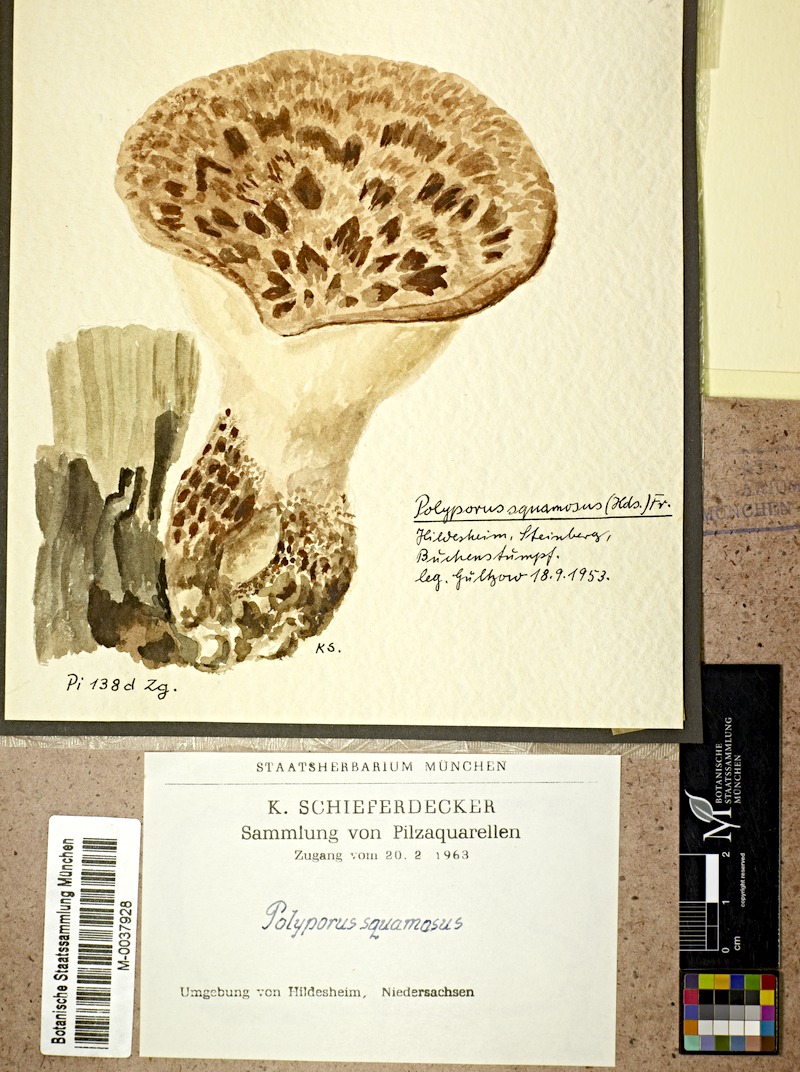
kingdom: Plantae
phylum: Tracheophyta
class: Magnoliopsida
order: Fagales
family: Fagaceae
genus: Fagus
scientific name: Fagus
